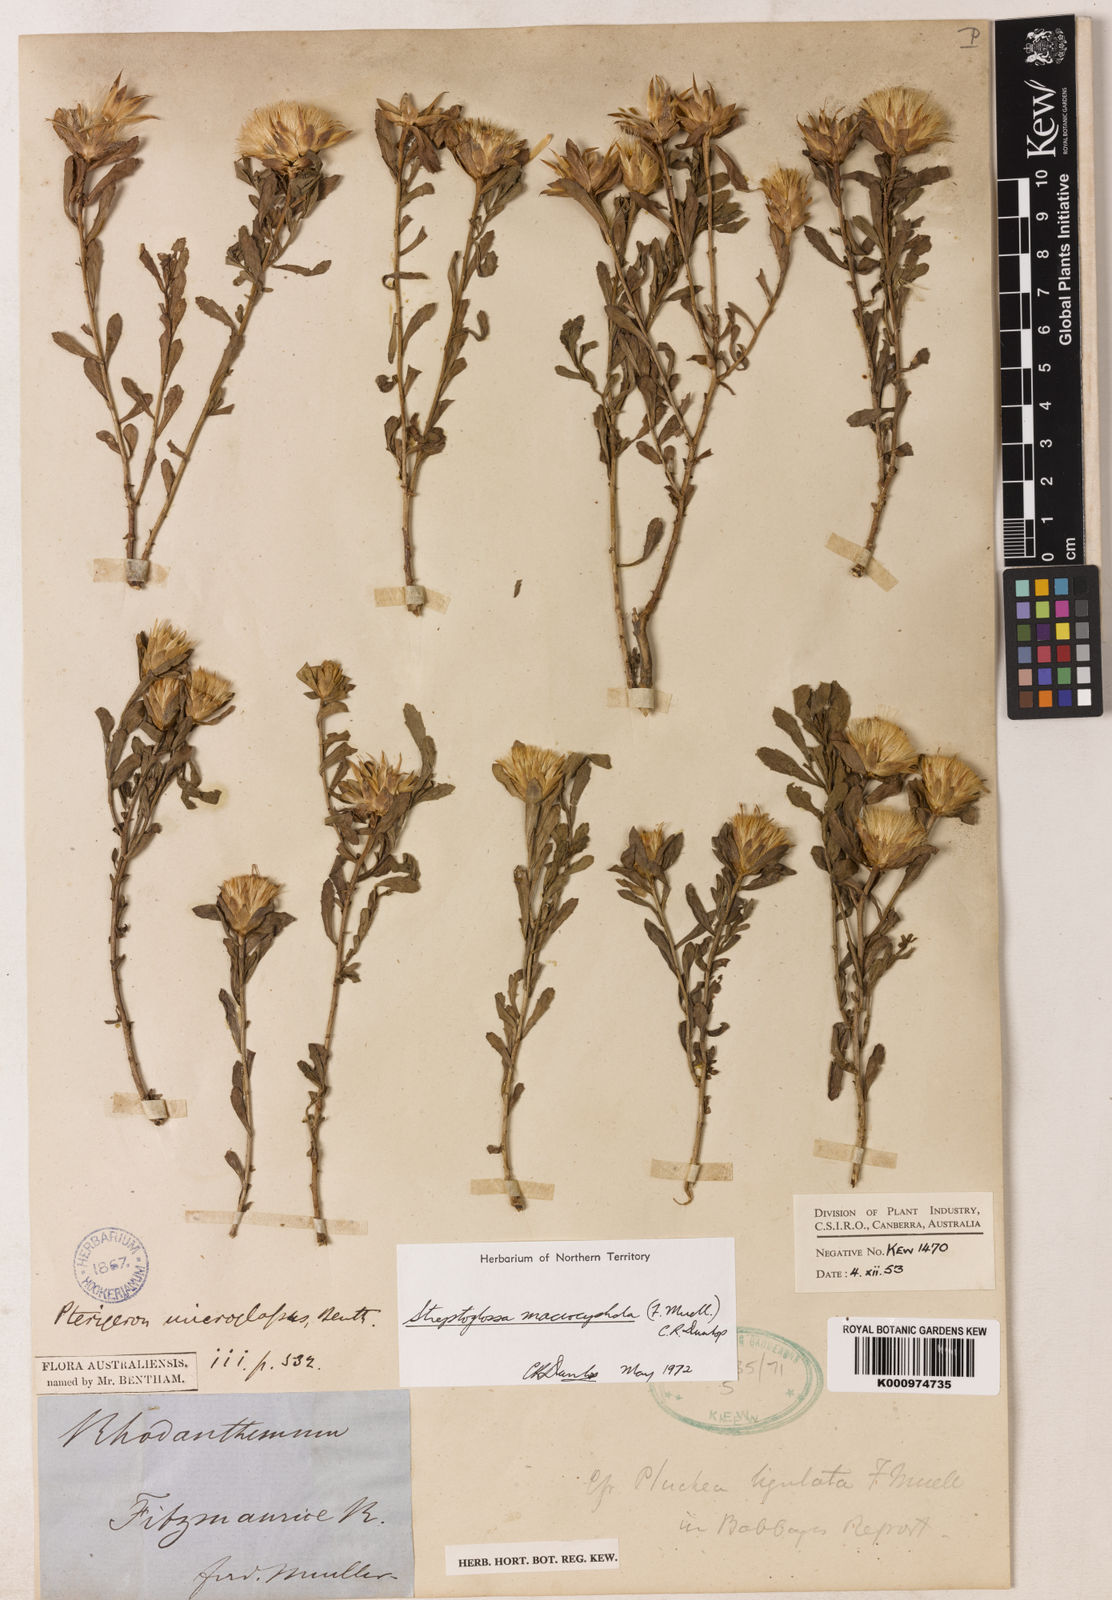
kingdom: Plantae
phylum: Tracheophyta
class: Magnoliopsida
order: Asterales
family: Asteraceae
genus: Streptoglossa
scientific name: Streptoglossa macrocephala
